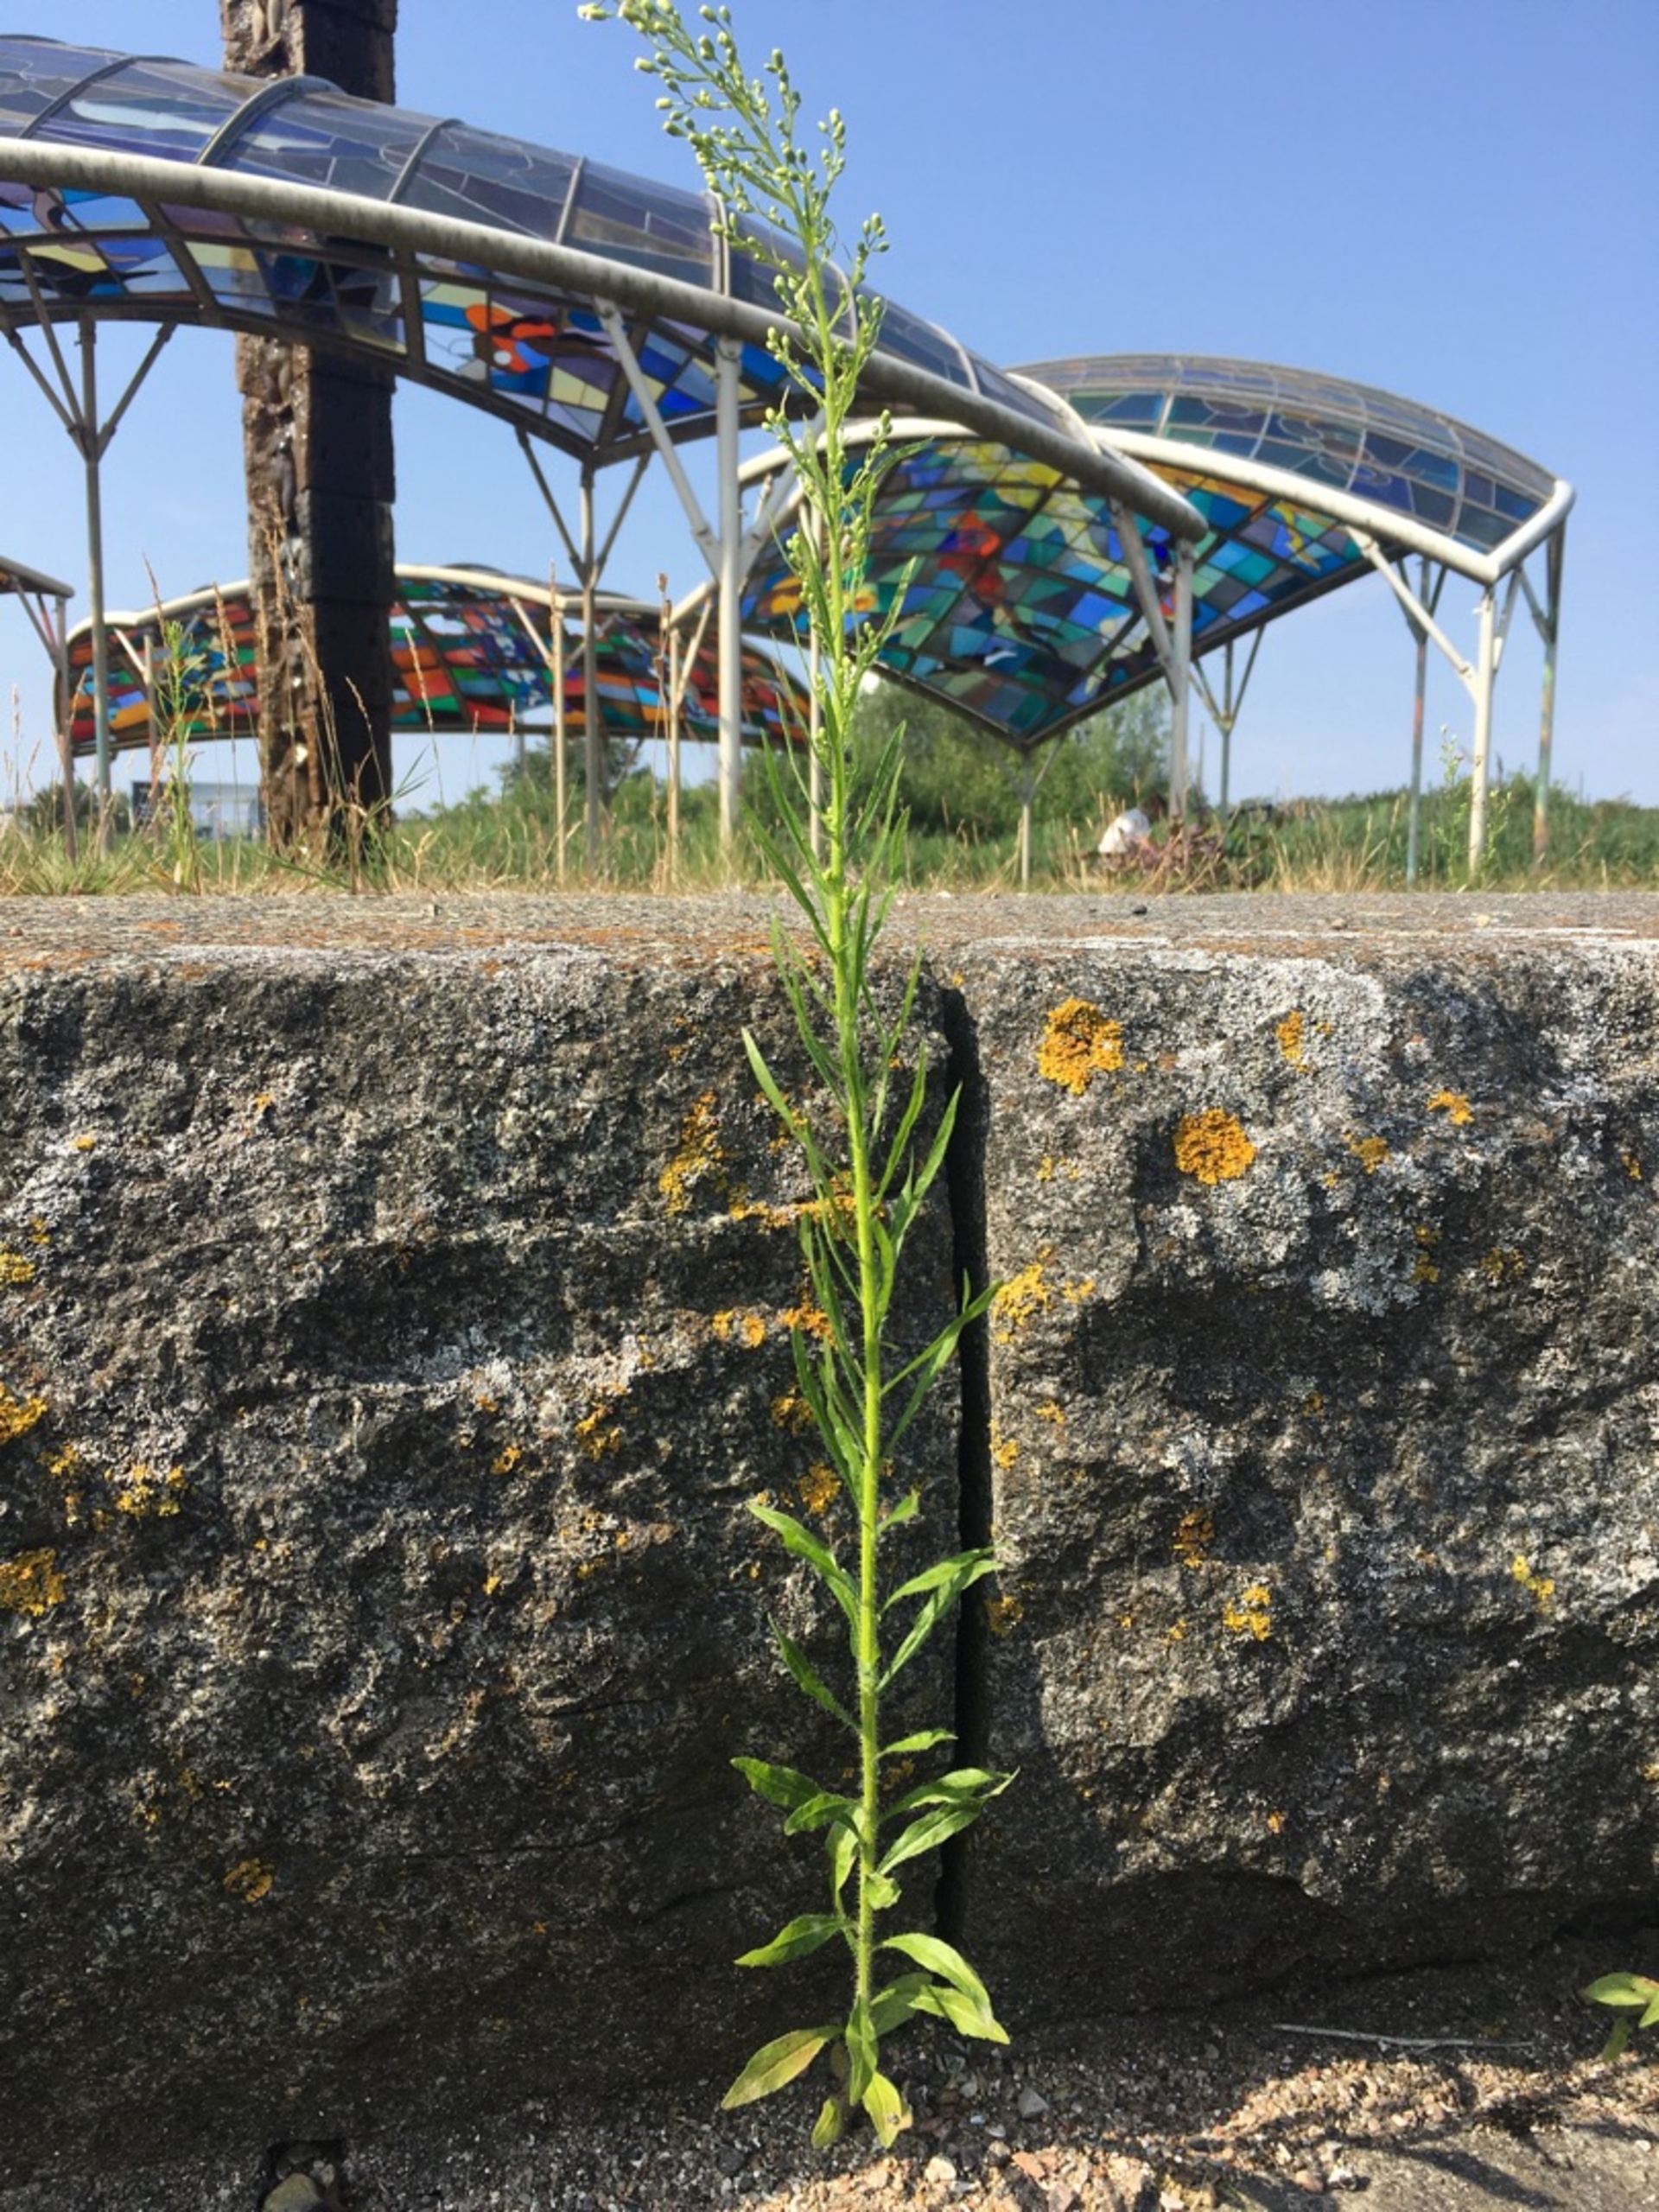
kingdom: Plantae
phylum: Tracheophyta
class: Magnoliopsida
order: Asterales
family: Asteraceae
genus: Erigeron
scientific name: Erigeron canadensis
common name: Kanadisk bakkestjerne
